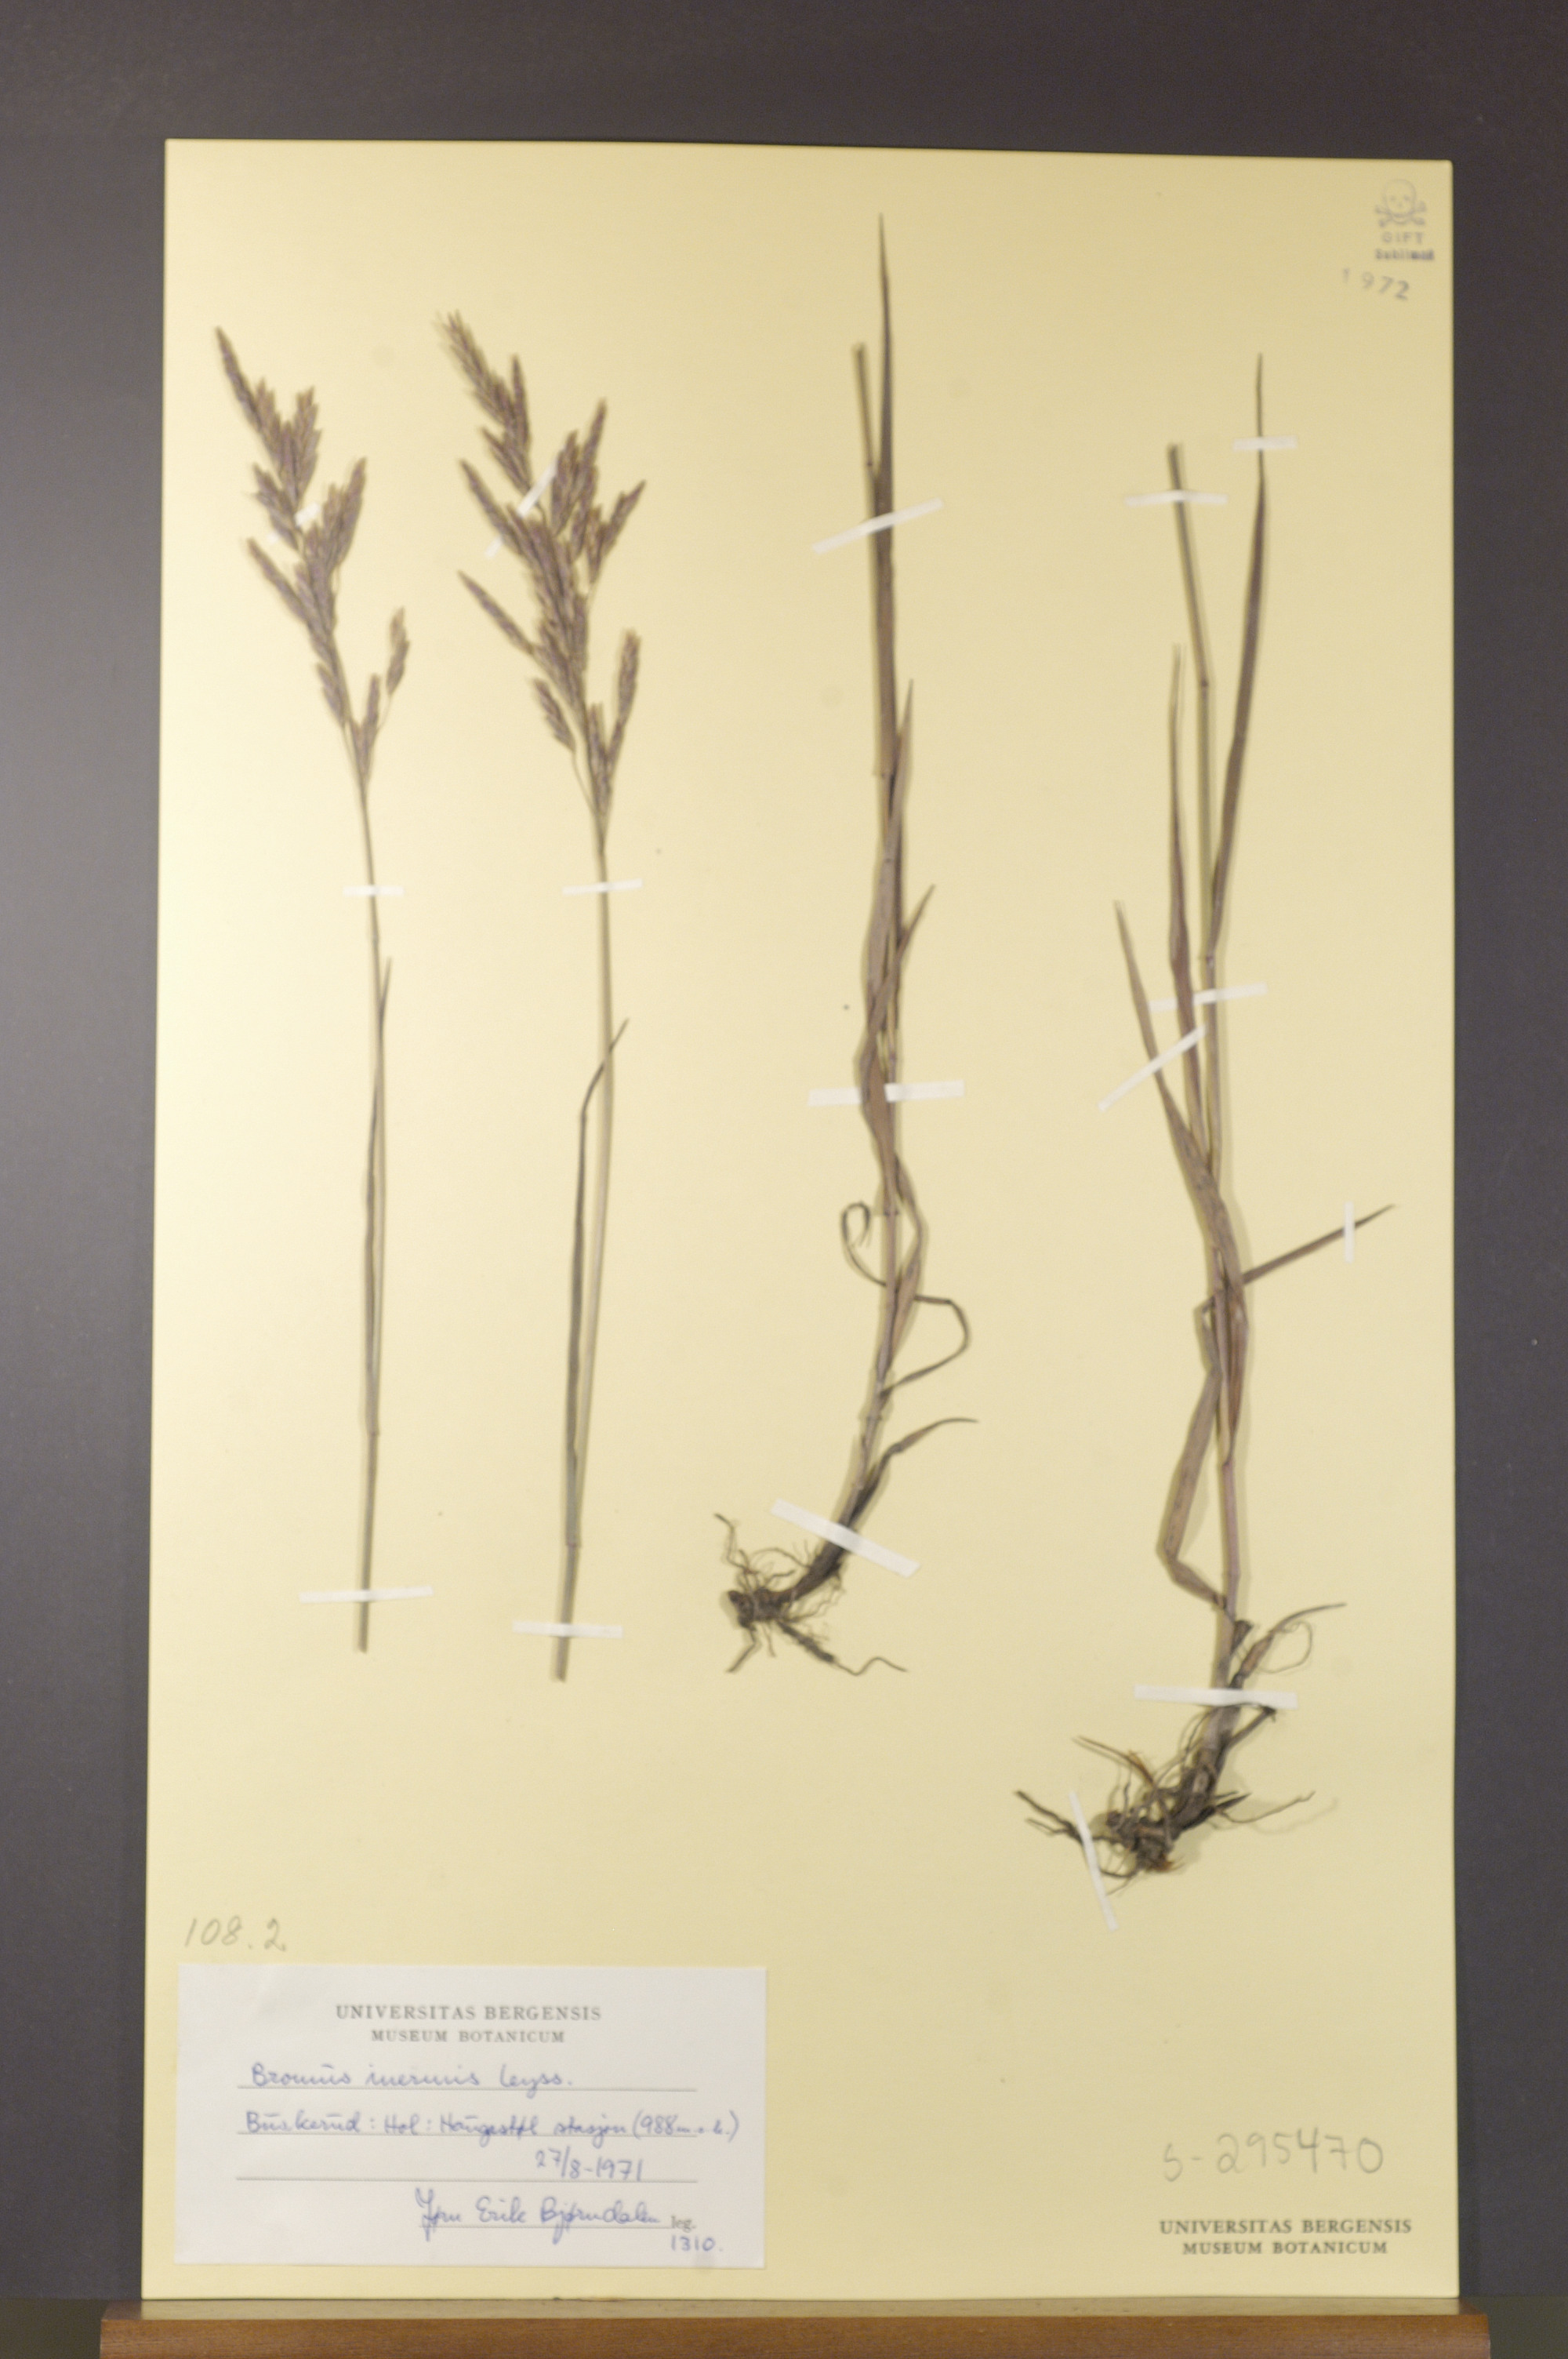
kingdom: Plantae
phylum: Tracheophyta
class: Liliopsida
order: Poales
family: Poaceae
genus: Bromus
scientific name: Bromus inermis
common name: Smooth brome
